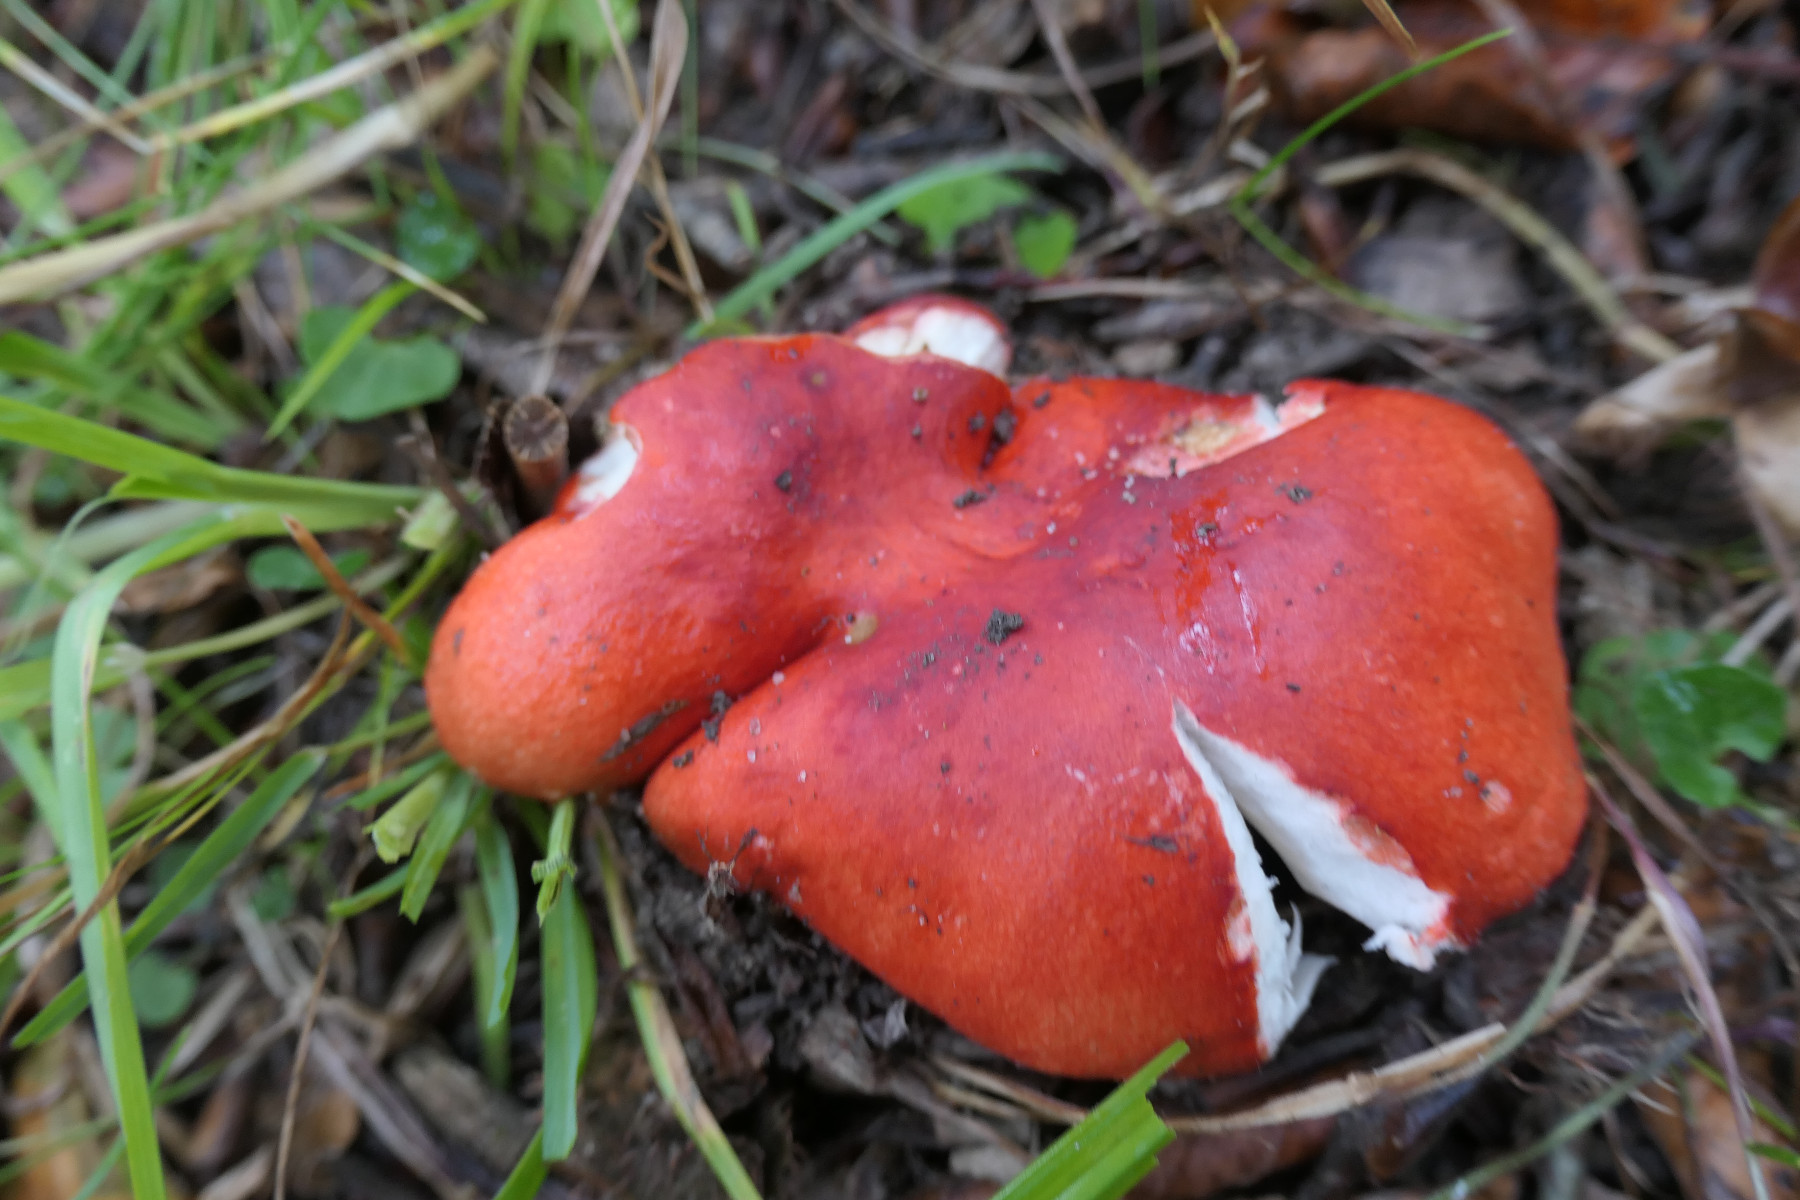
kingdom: Fungi
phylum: Basidiomycota
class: Agaricomycetes
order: Russulales
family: Russulaceae
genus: Russula
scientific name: Russula silvestris
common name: mellemstor gift-skørhat
